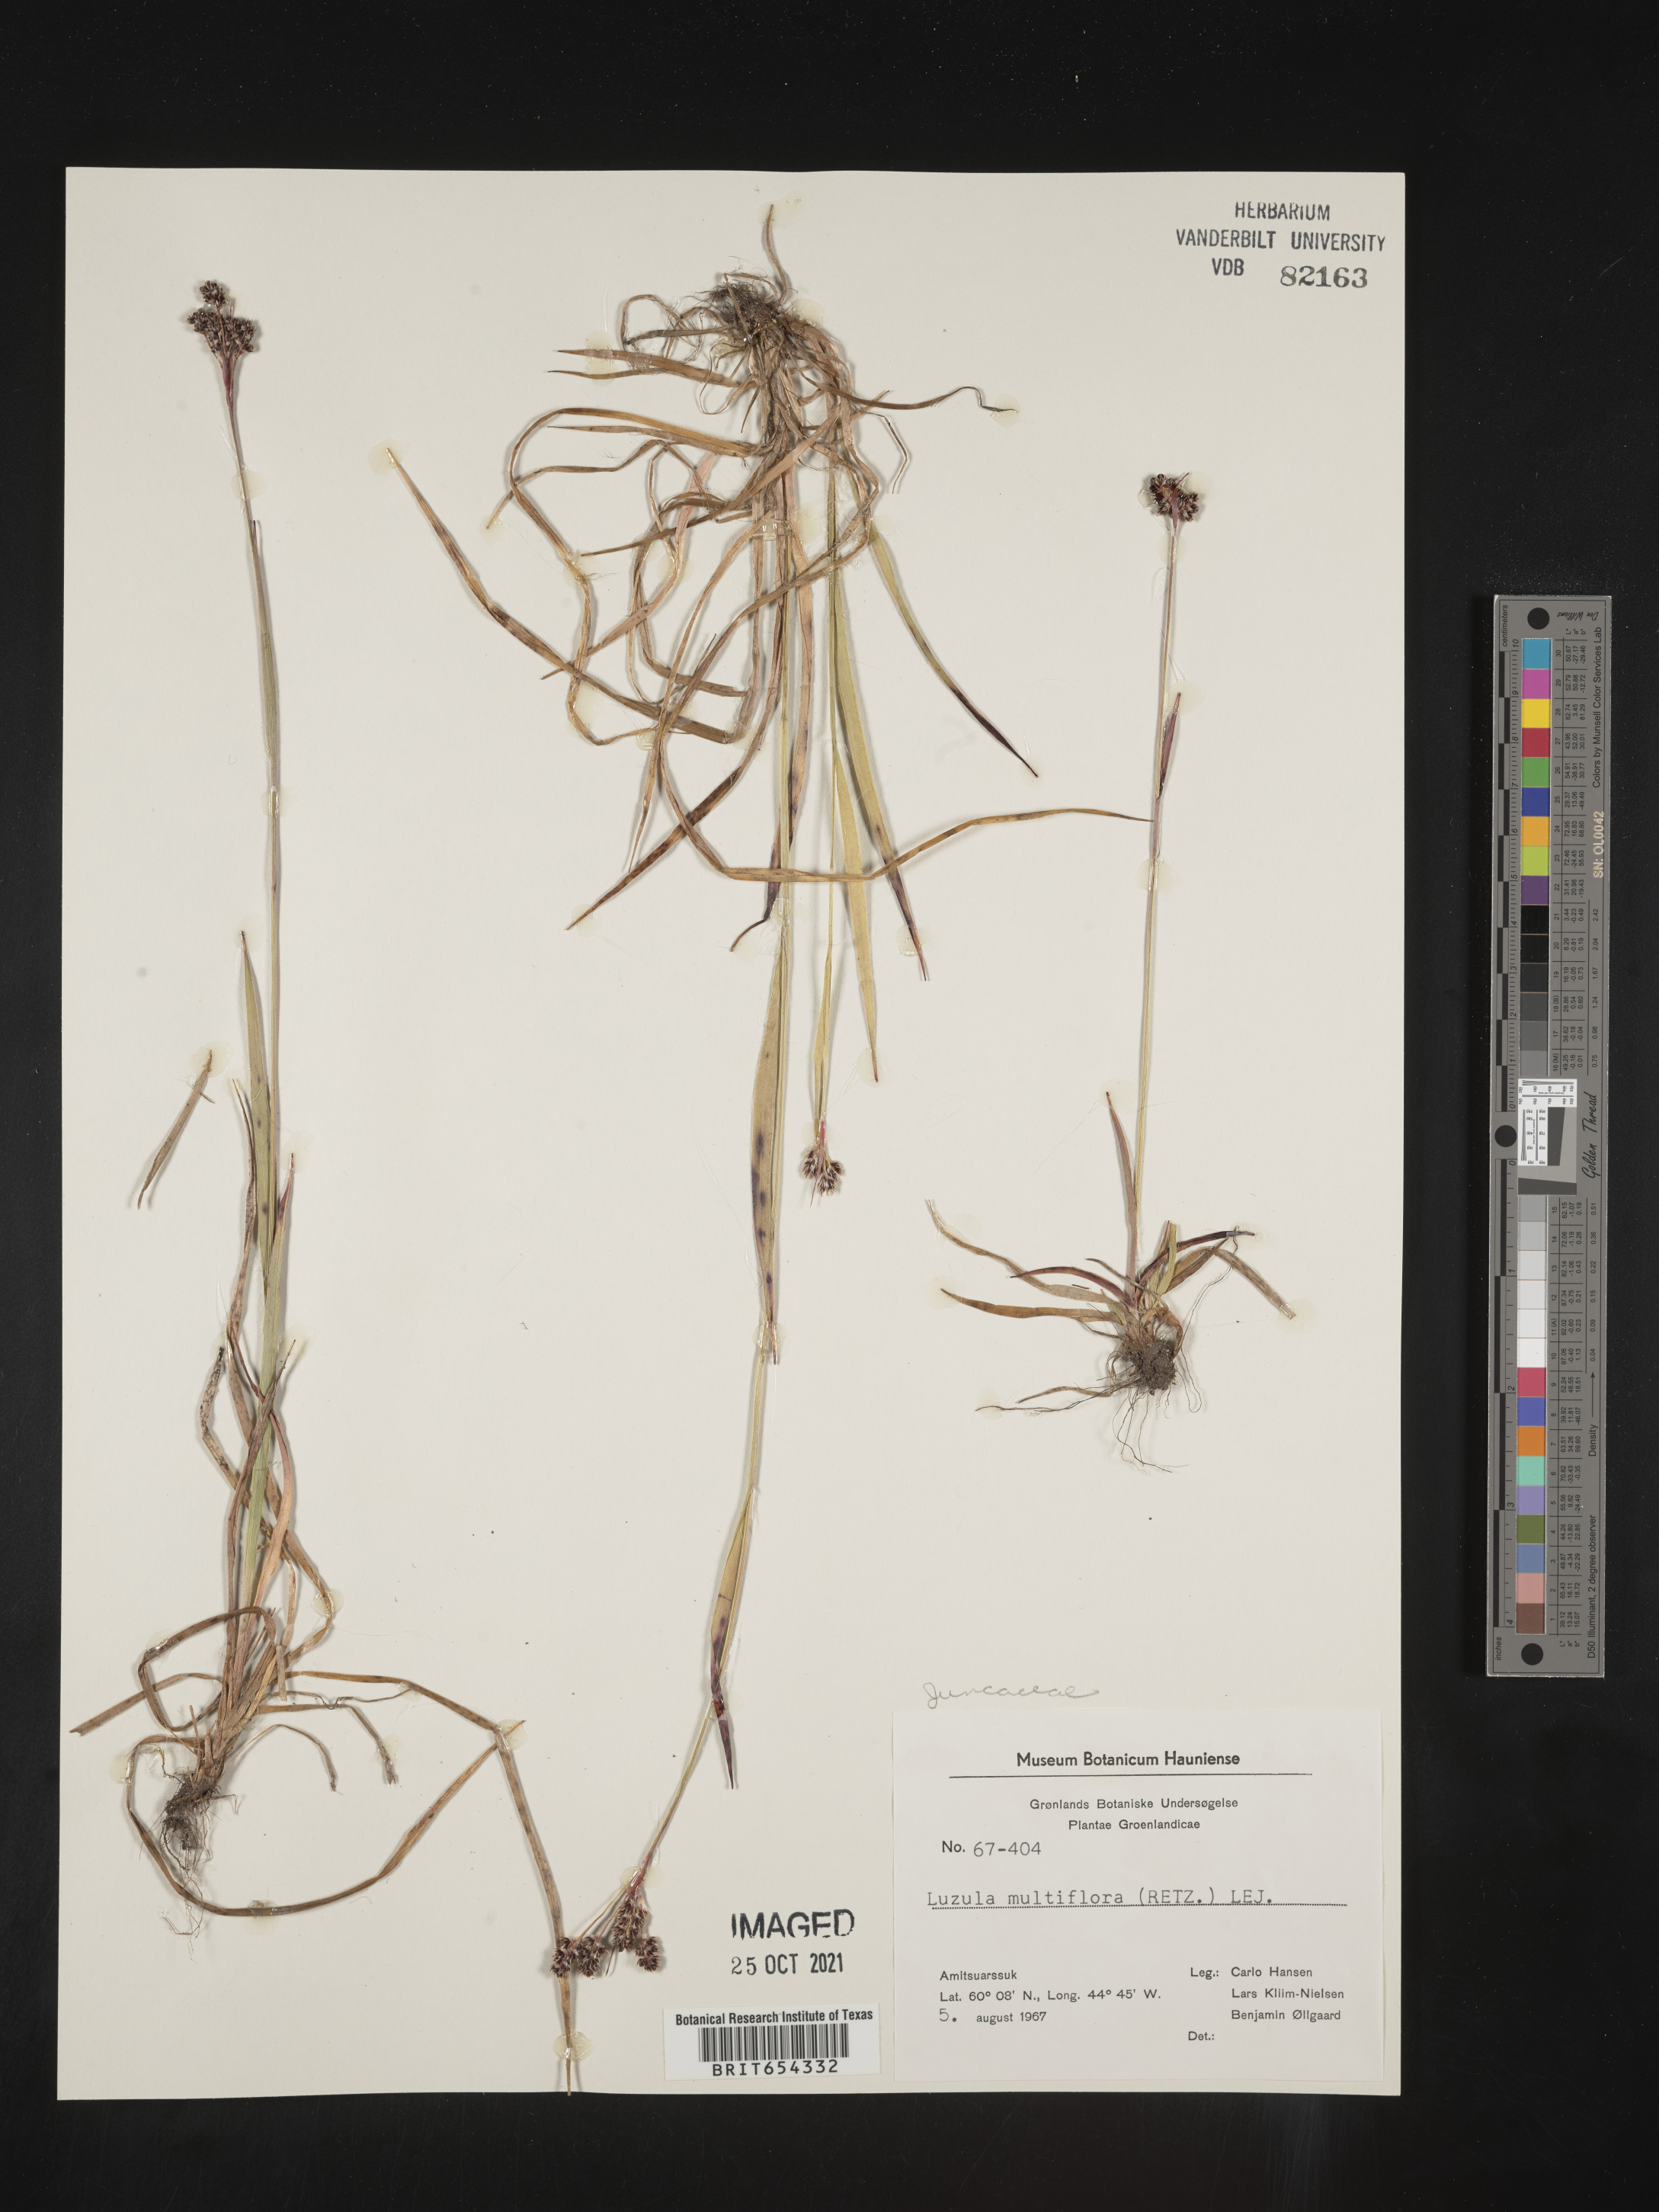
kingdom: Plantae
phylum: Tracheophyta
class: Liliopsida
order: Poales
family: Juncaceae
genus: Luzula
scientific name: Luzula
